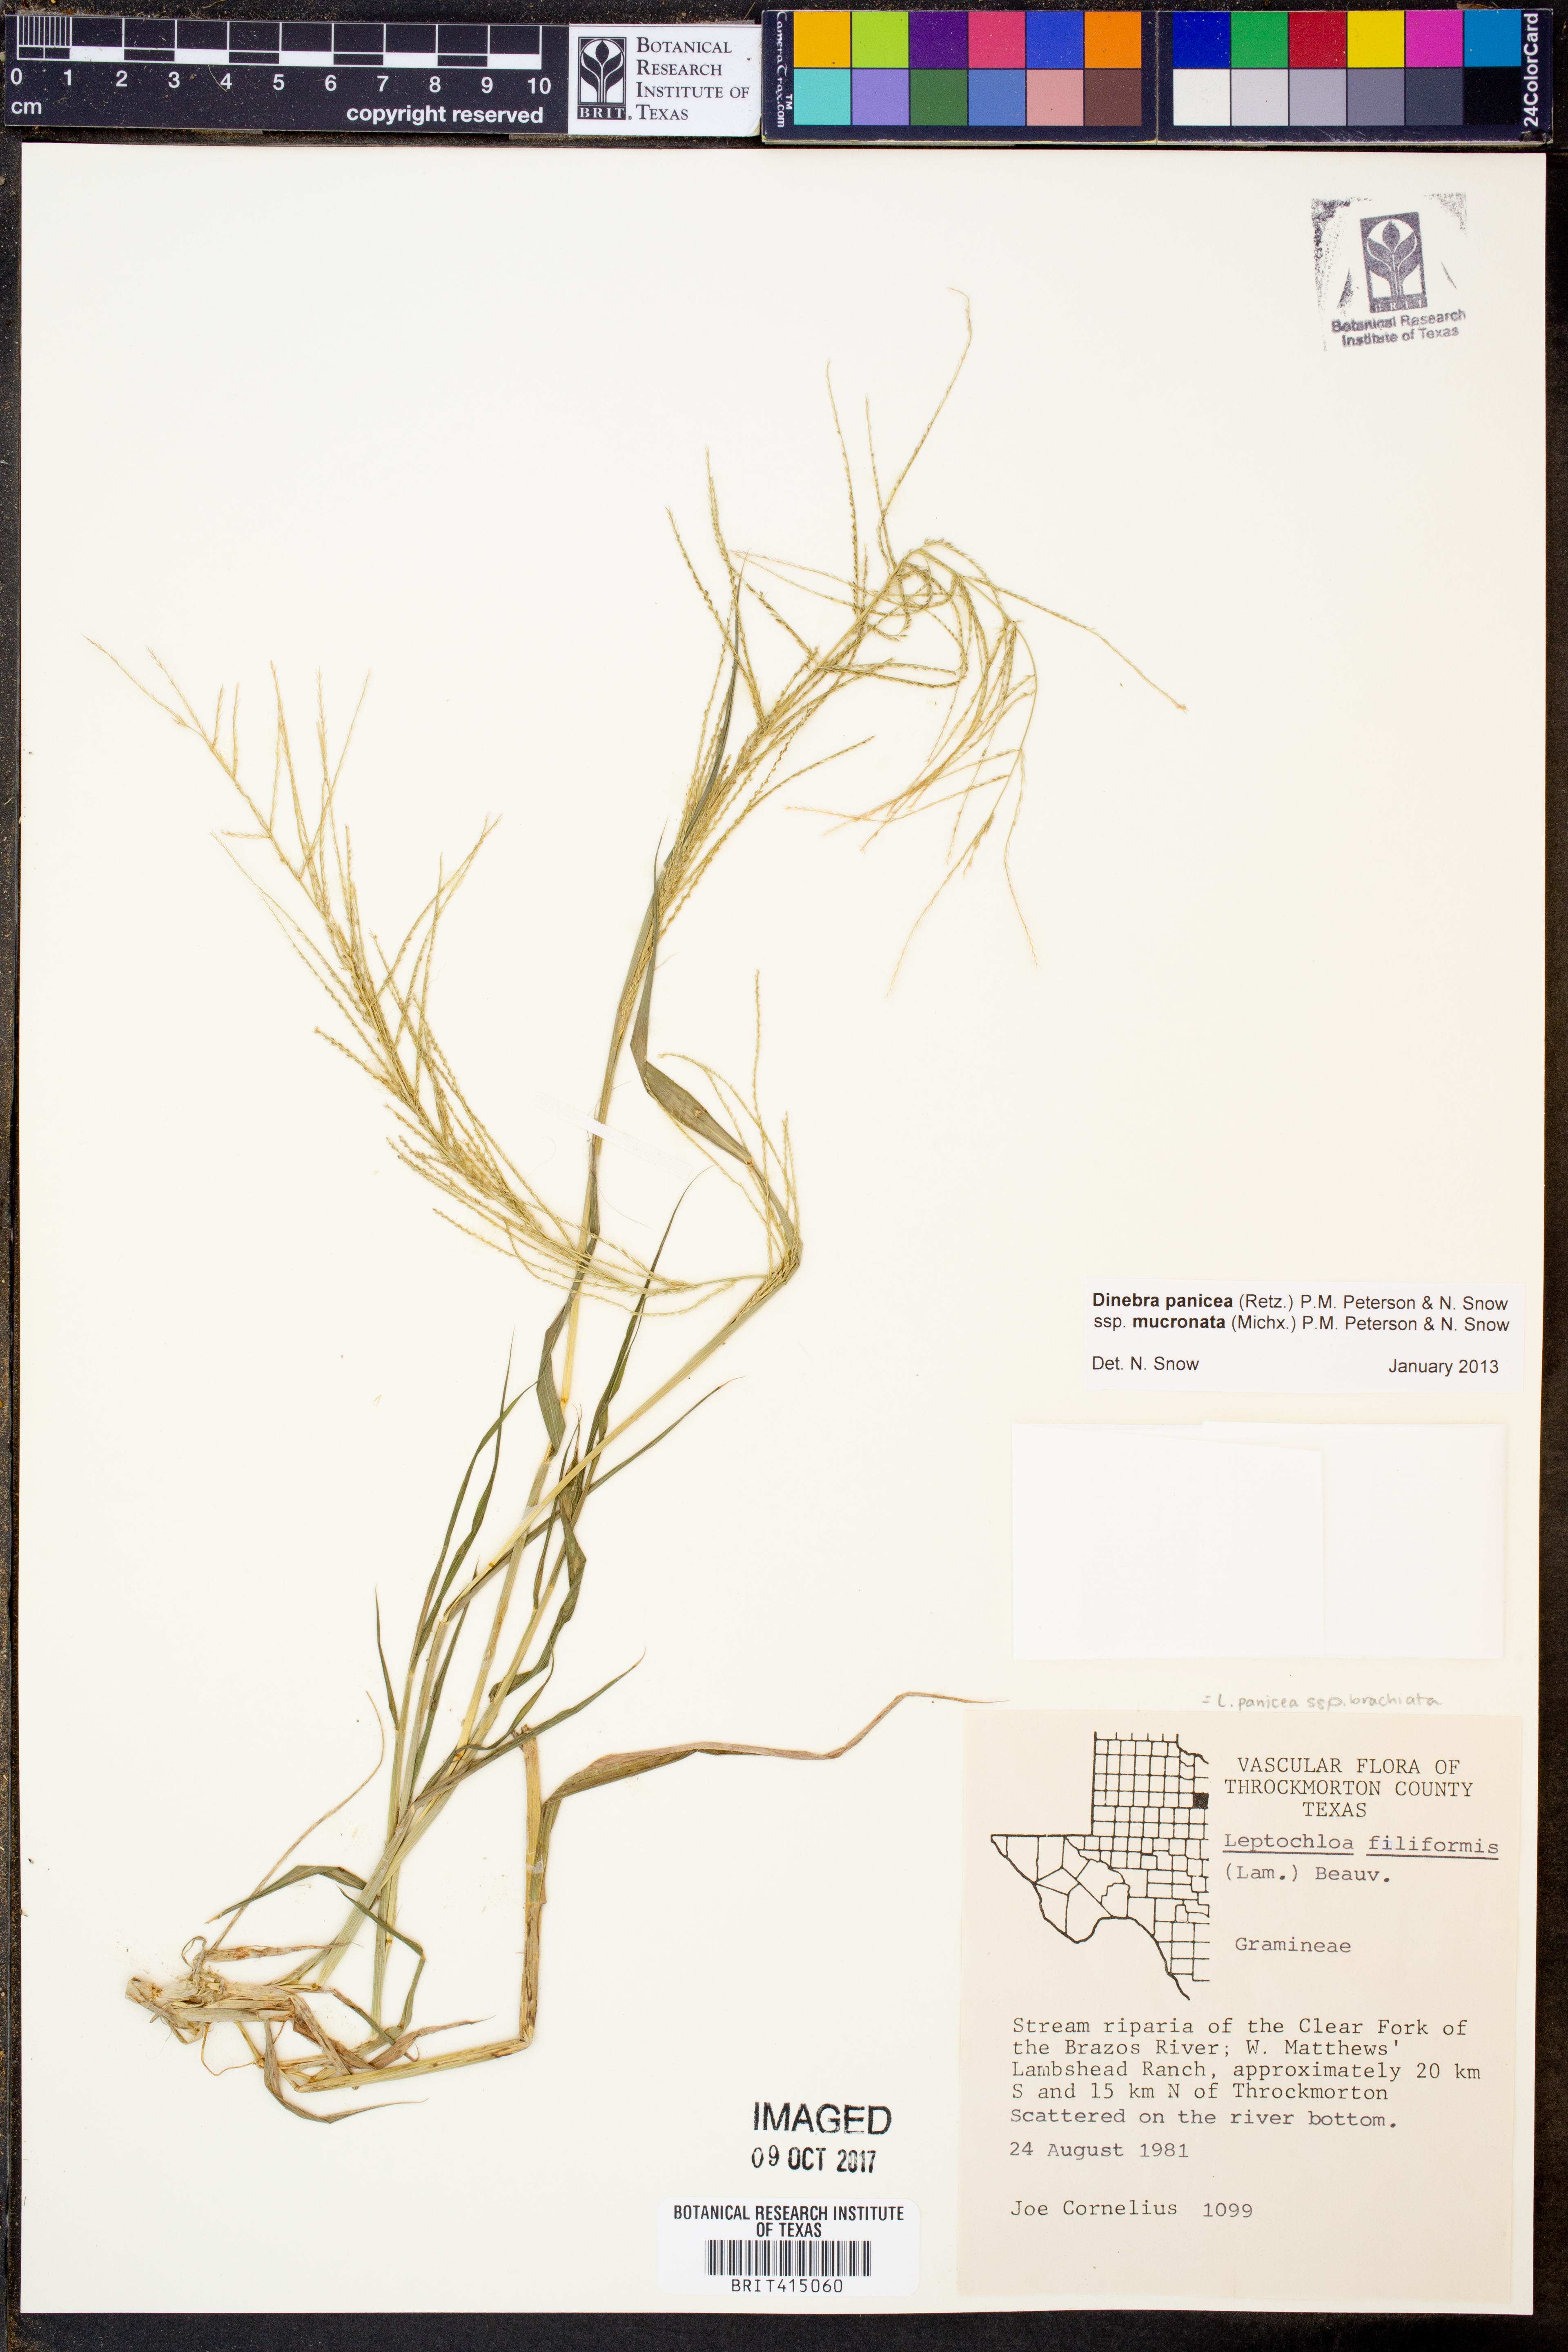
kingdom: Plantae
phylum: Tracheophyta
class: Liliopsida
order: Poales
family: Poaceae
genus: Leptochloa
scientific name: Leptochloa mucronata
